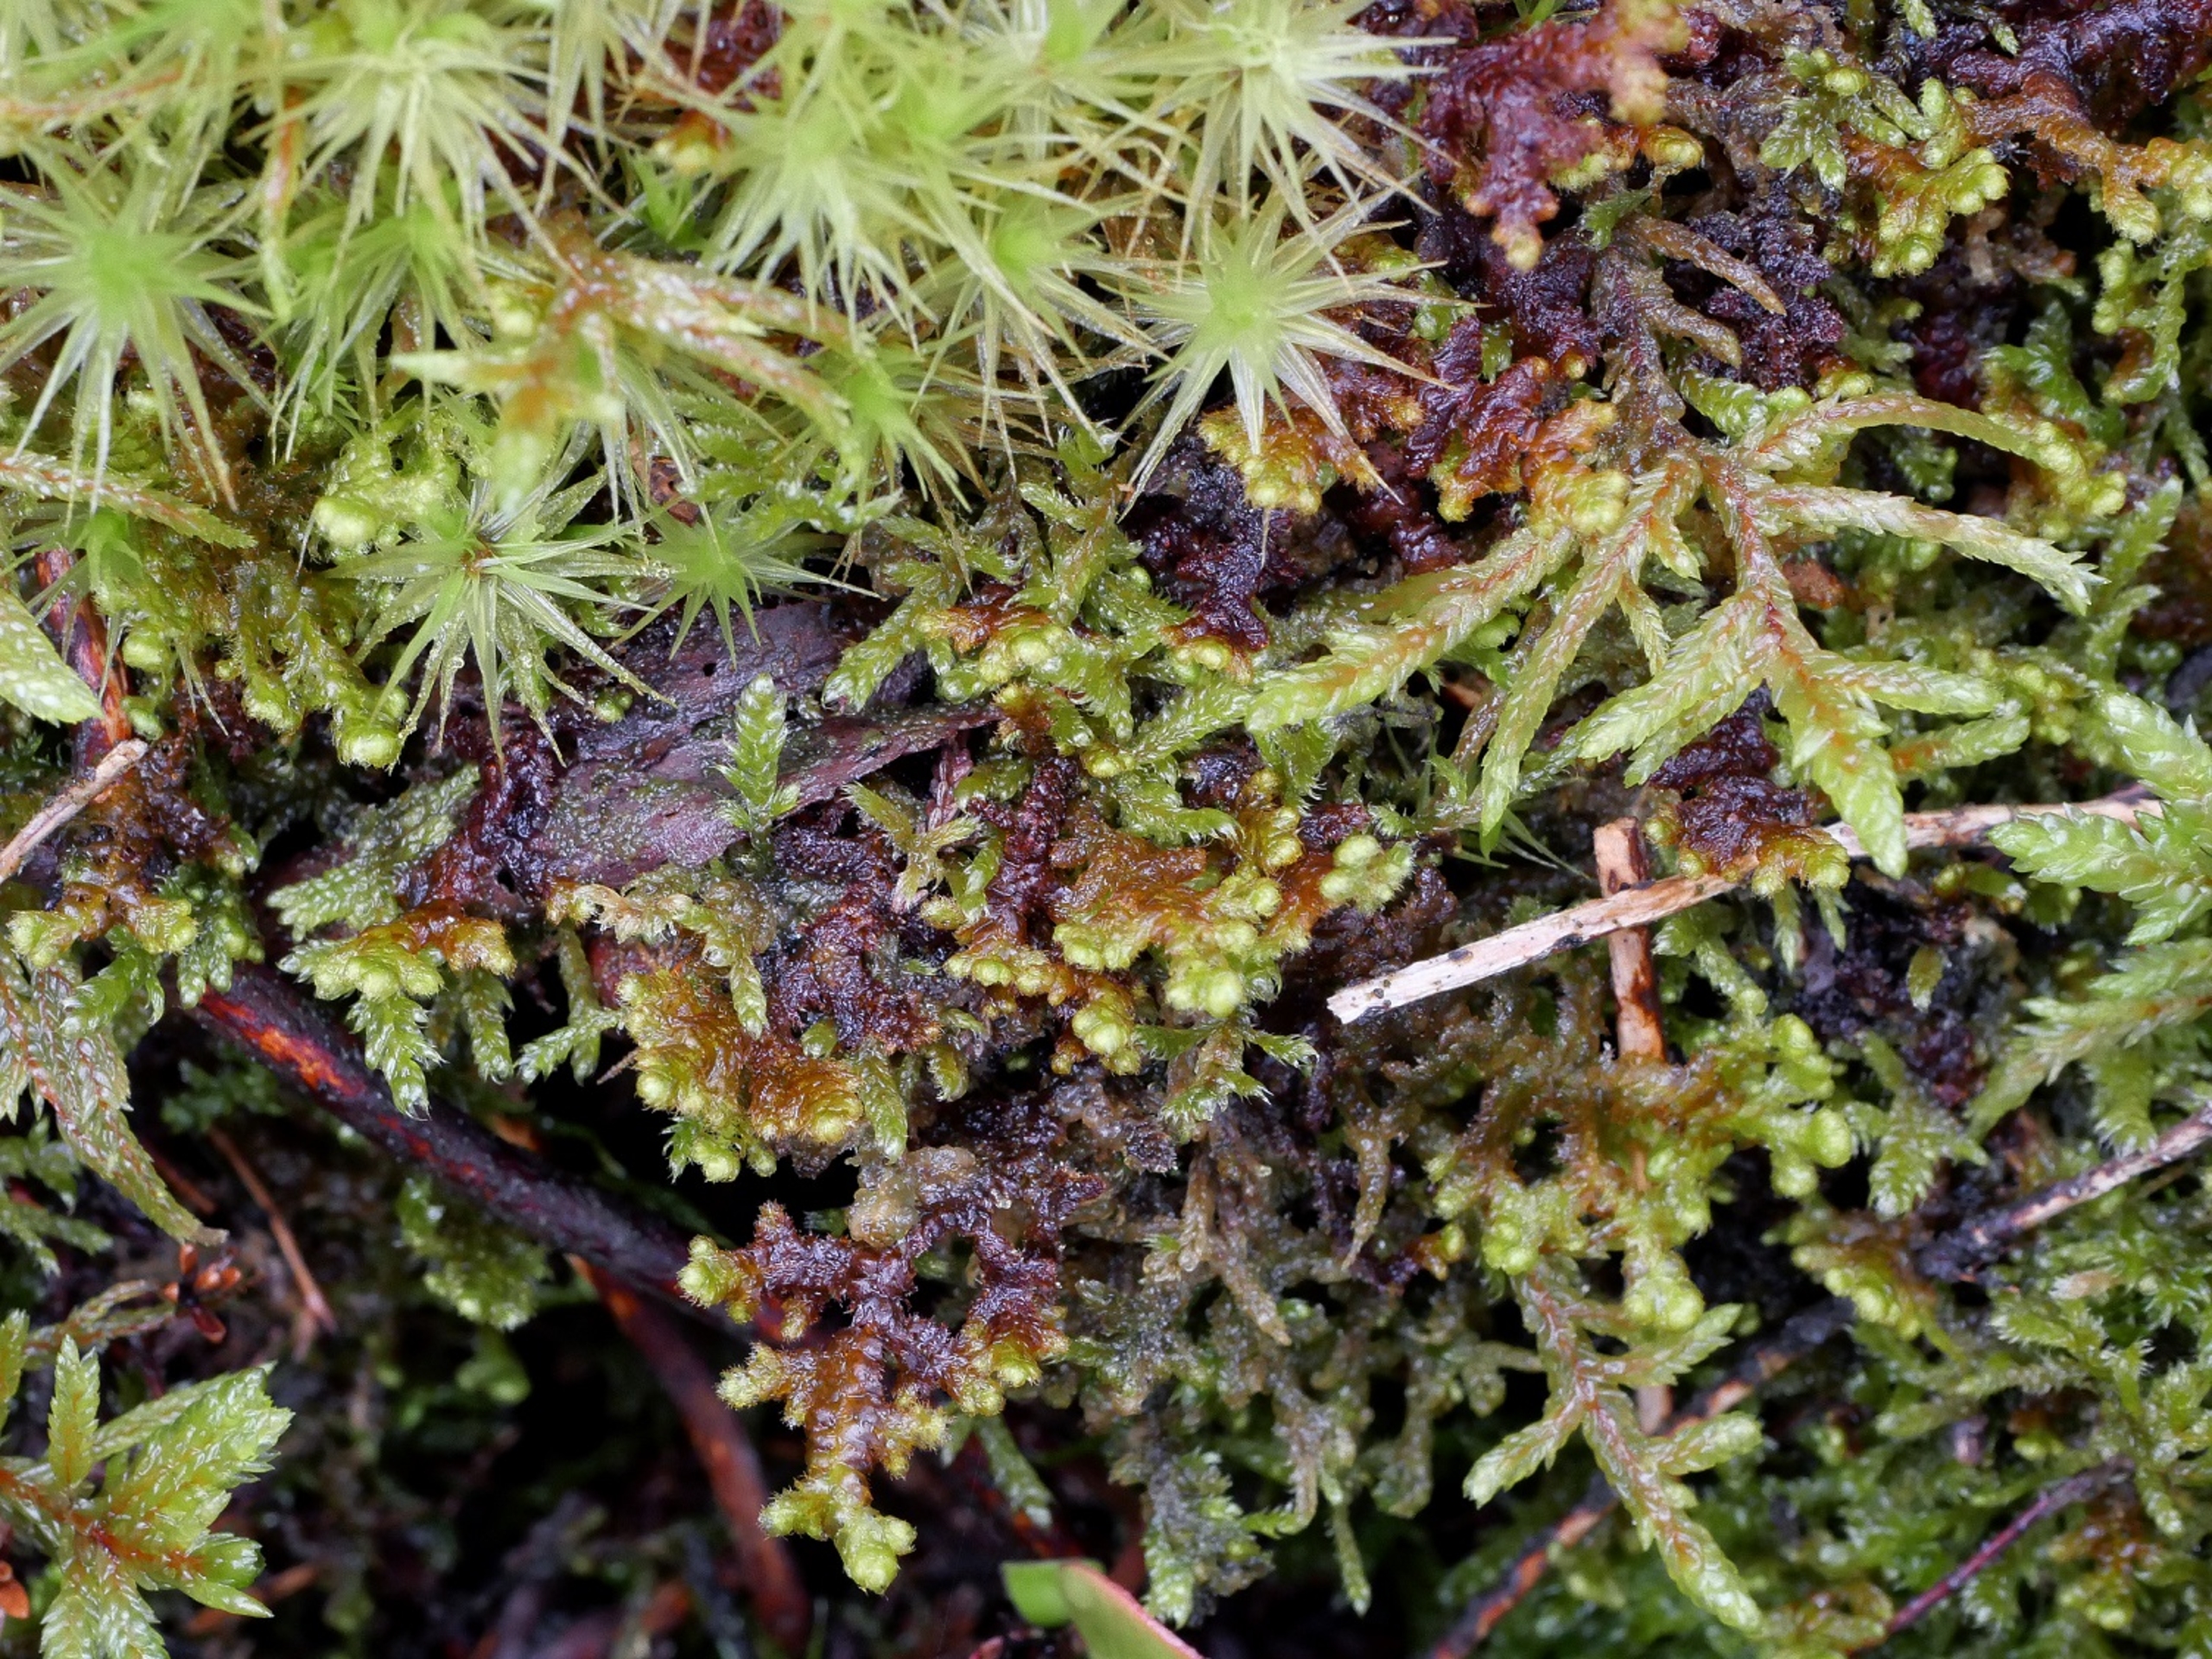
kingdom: Plantae
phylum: Marchantiophyta
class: Jungermanniopsida
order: Ptilidiales
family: Ptilidiaceae
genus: Ptilidium
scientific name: Ptilidium ciliare
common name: Almindelig frynsemos
